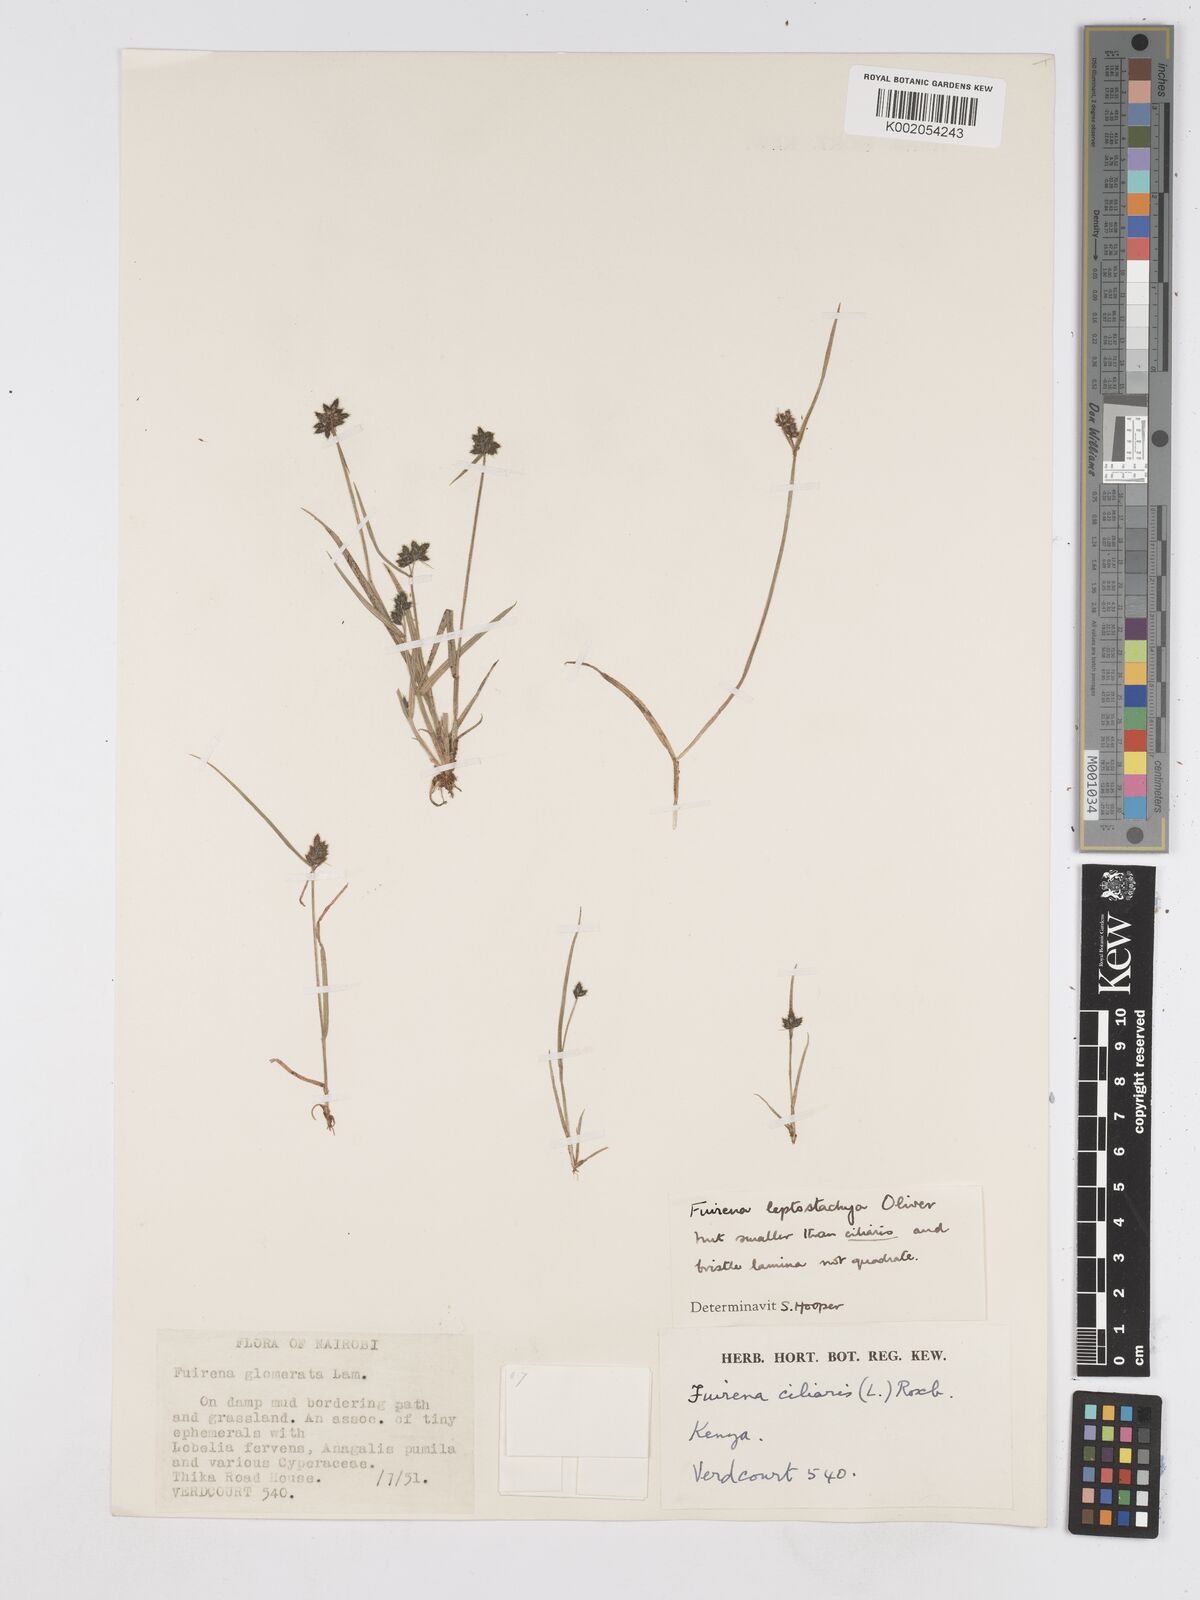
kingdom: Plantae
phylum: Tracheophyta
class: Liliopsida
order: Poales
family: Cyperaceae
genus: Fuirena
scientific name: Fuirena leptostachya
